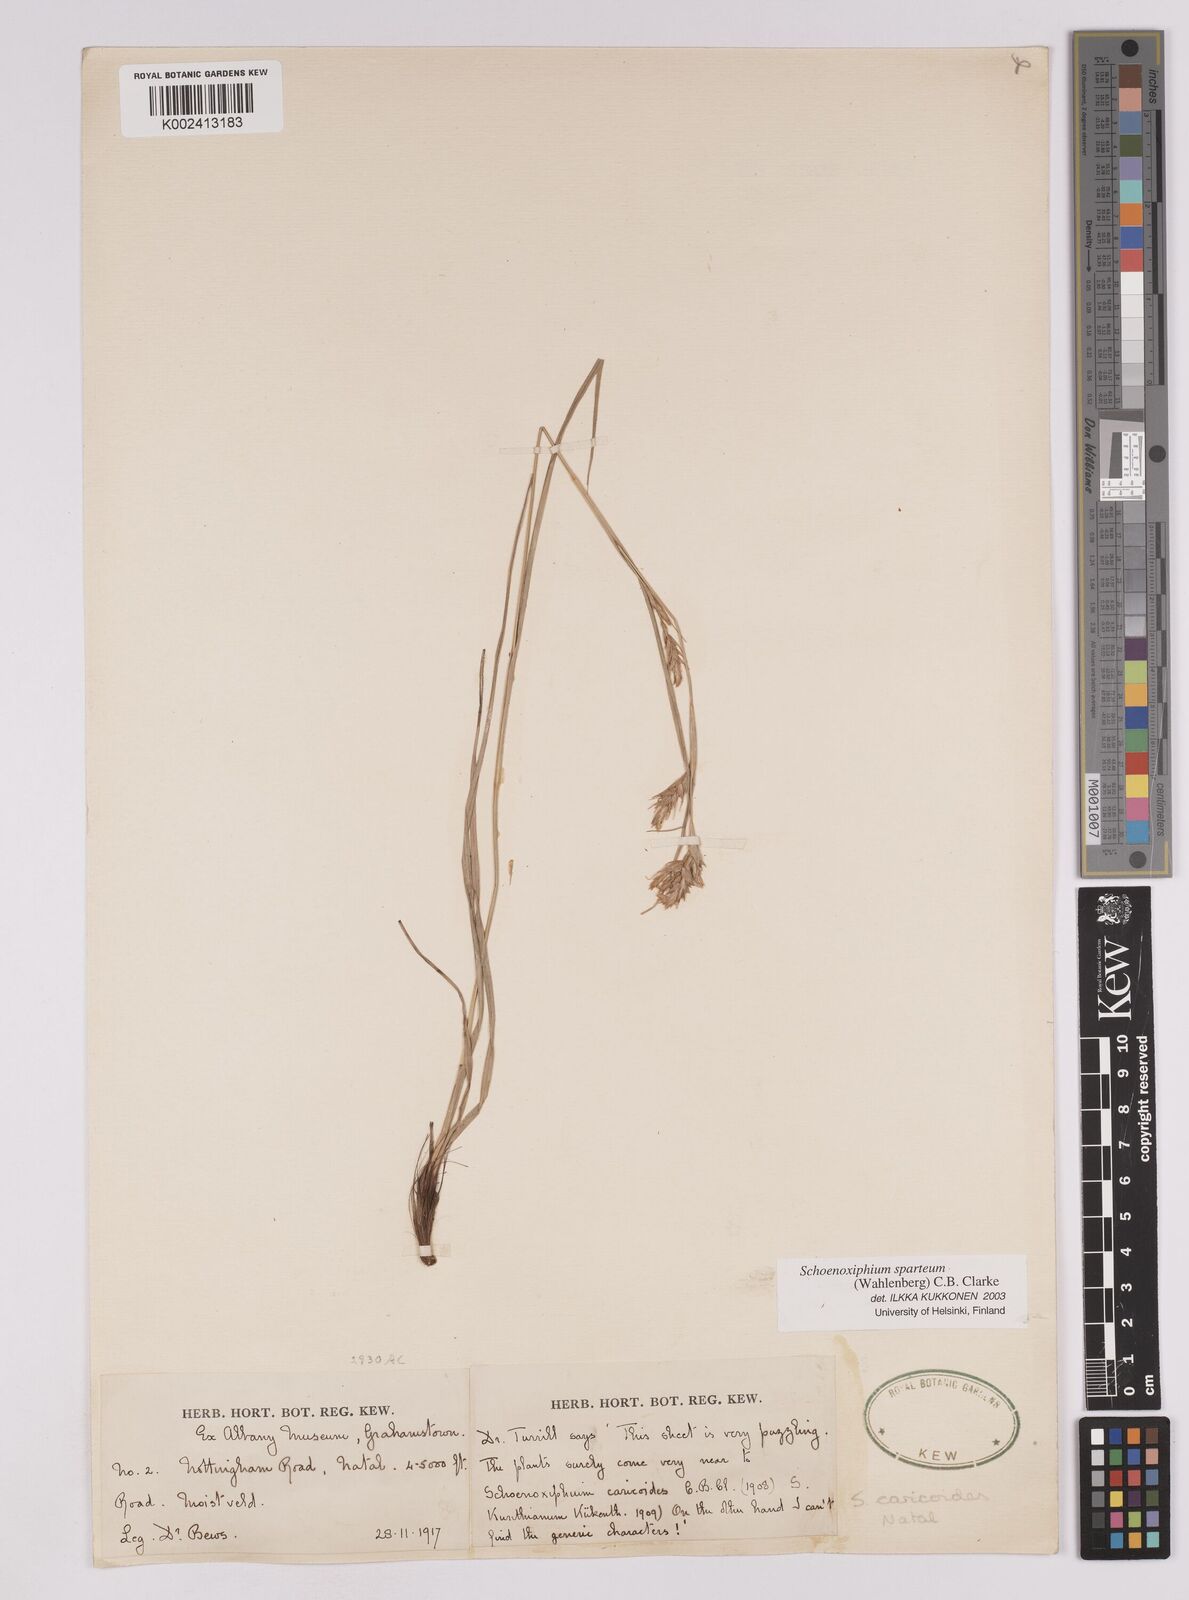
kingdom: Plantae
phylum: Tracheophyta
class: Liliopsida
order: Poales
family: Cyperaceae
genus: Carex
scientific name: Carex spartea
